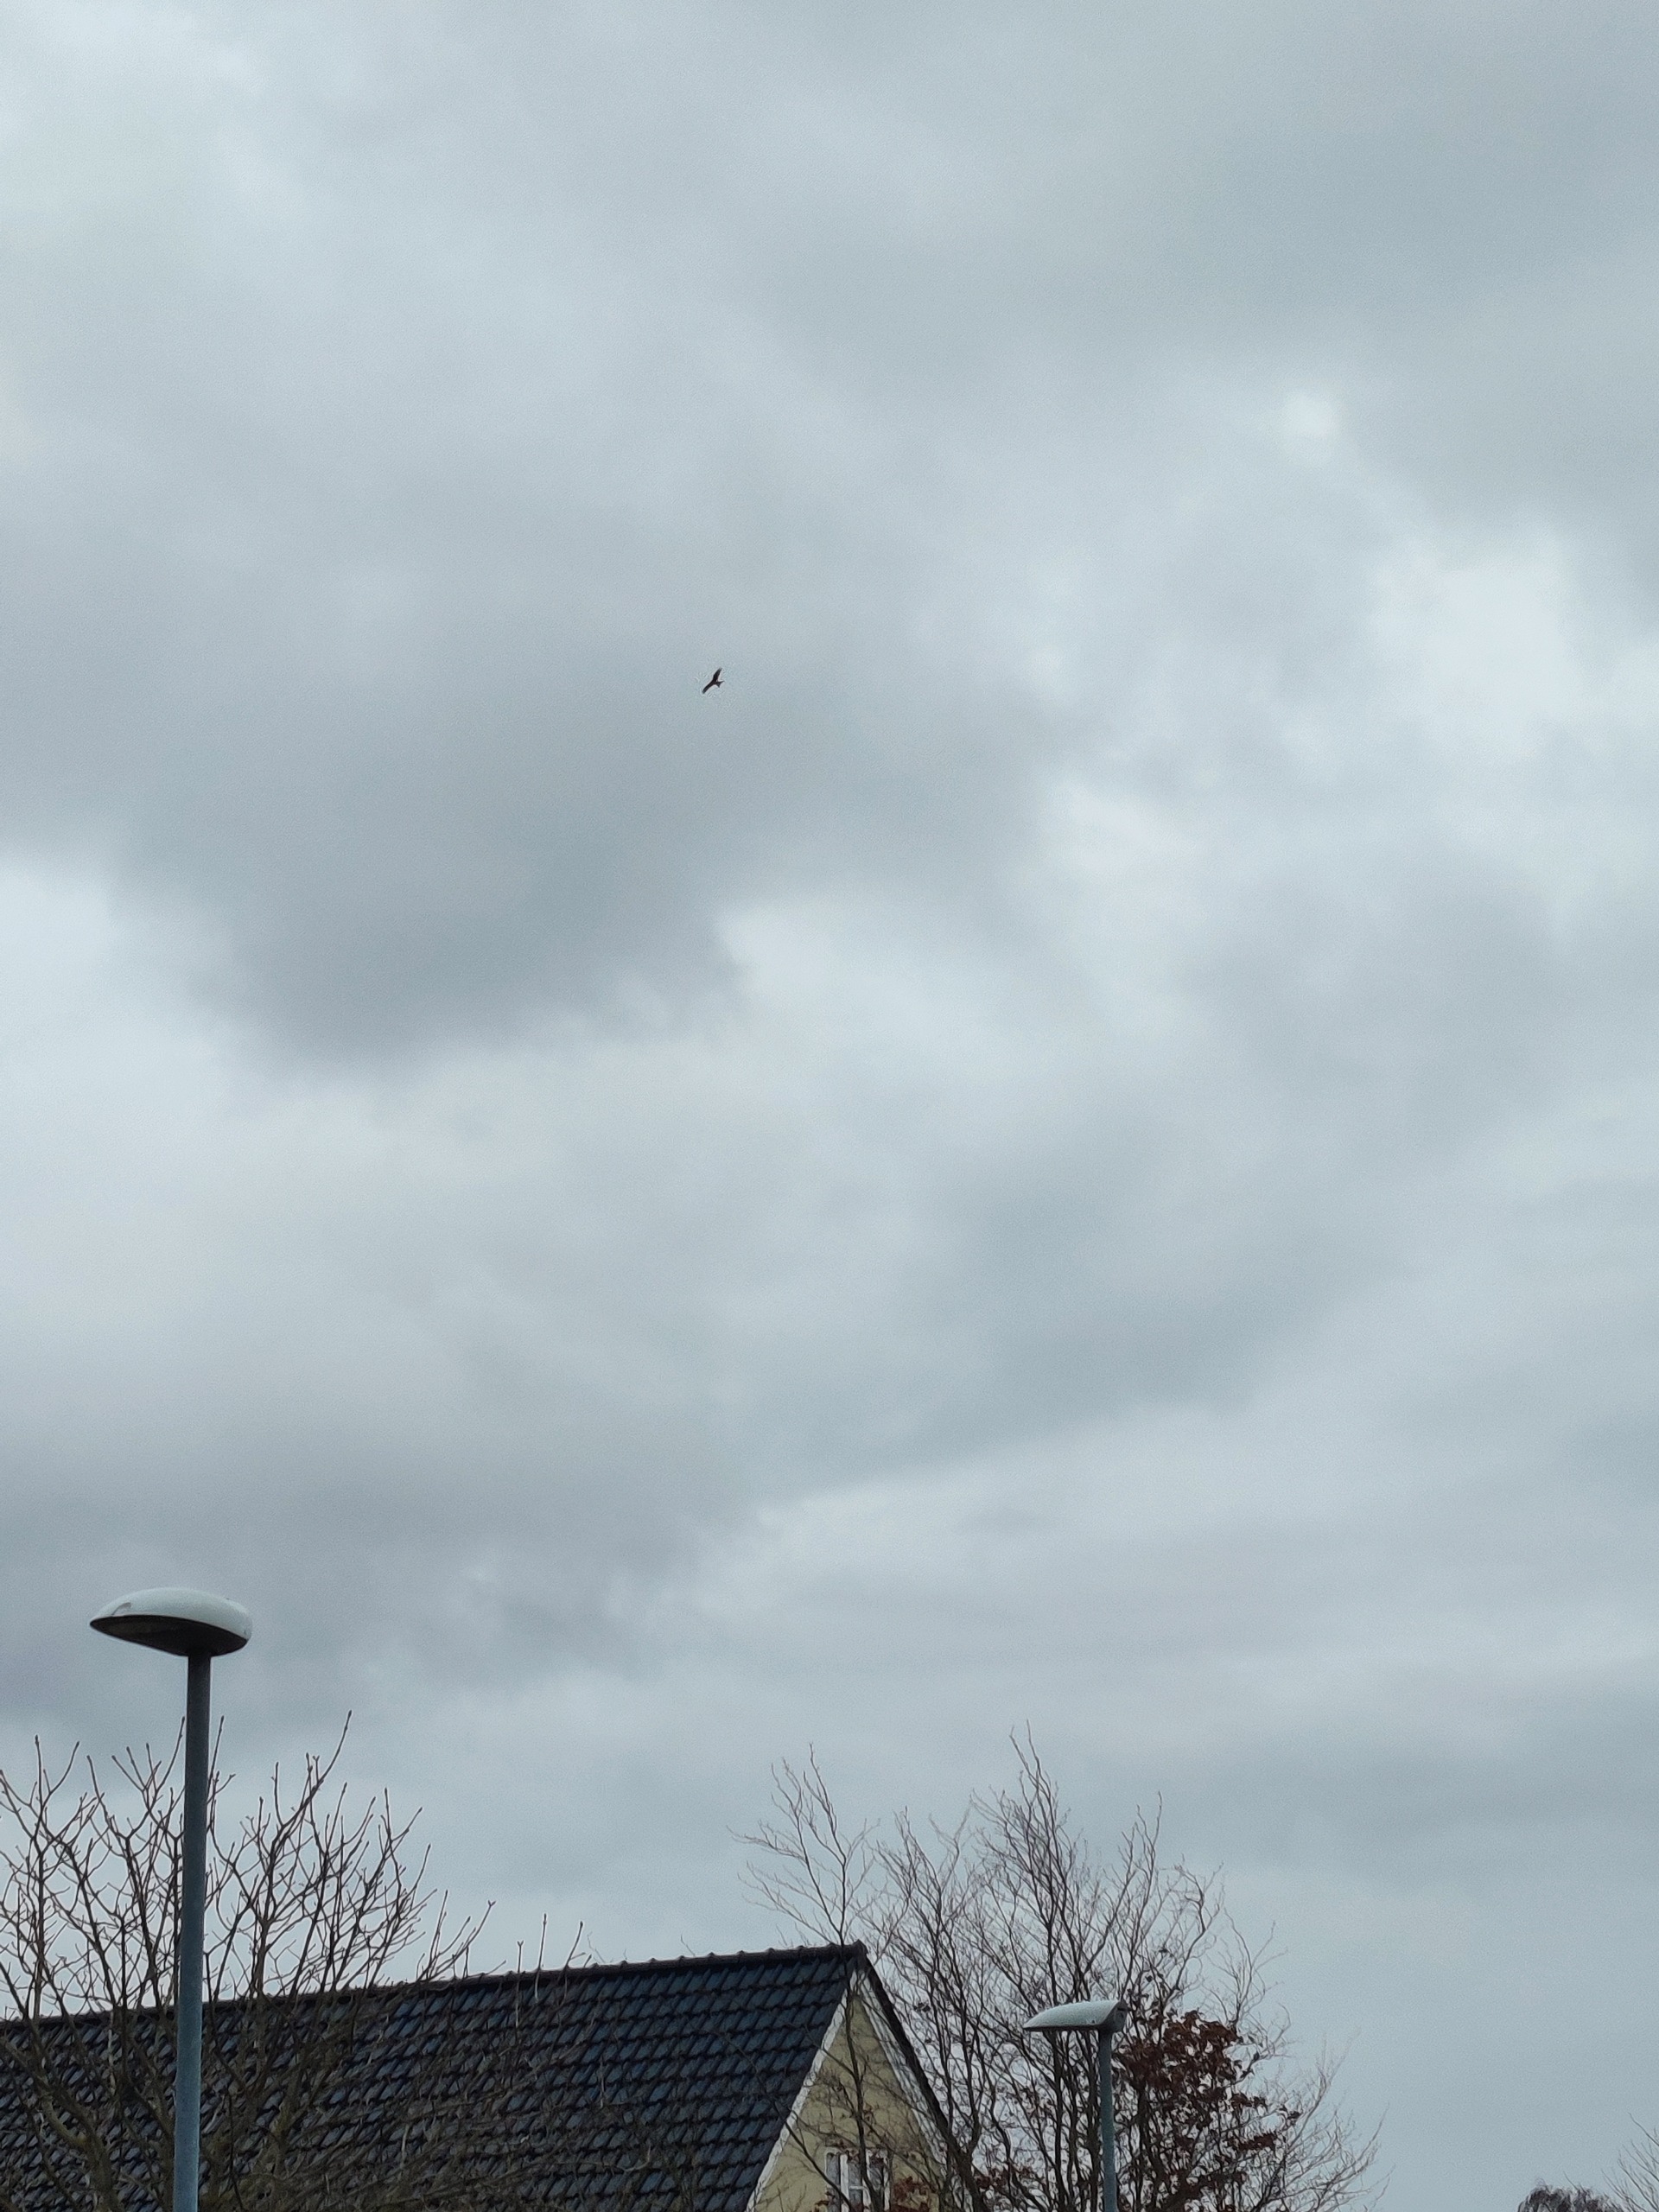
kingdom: Animalia
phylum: Chordata
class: Aves
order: Accipitriformes
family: Accipitridae
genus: Milvus
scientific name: Milvus milvus
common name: Rød glente
